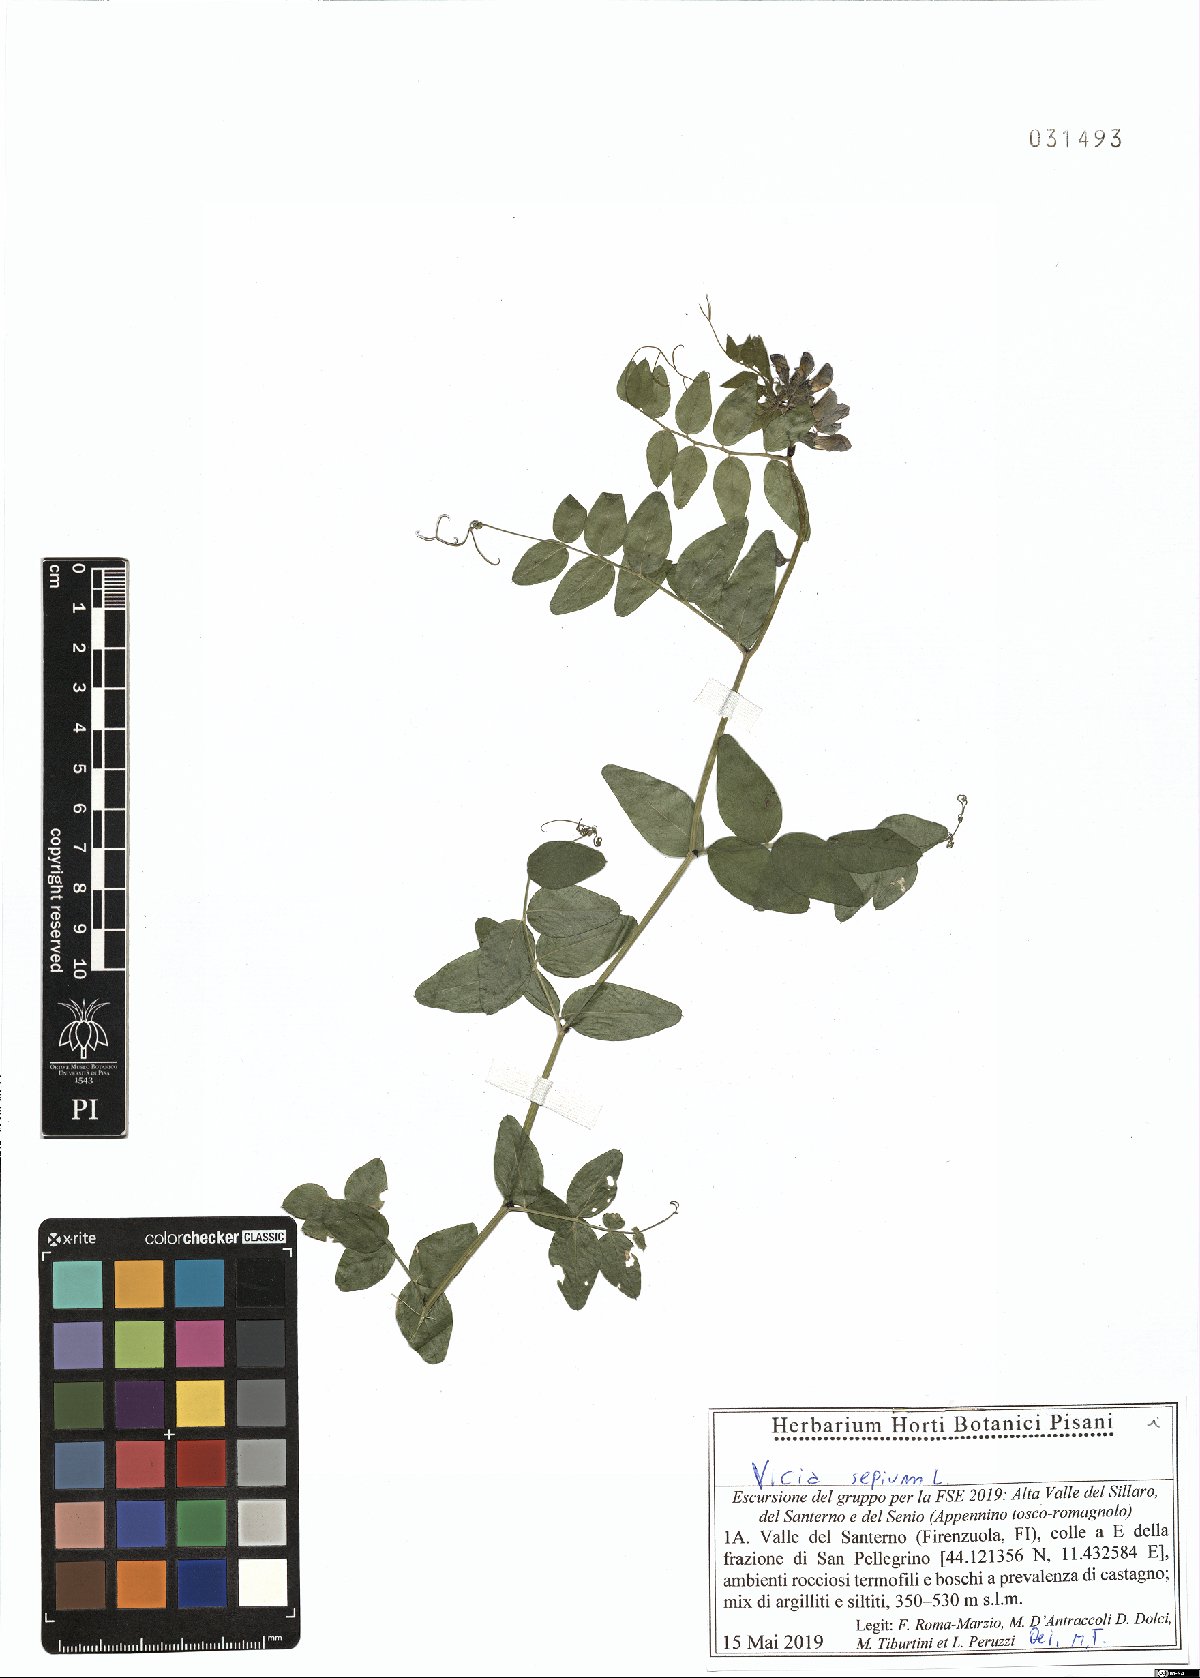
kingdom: Plantae
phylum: Tracheophyta
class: Magnoliopsida
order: Fabales
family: Fabaceae
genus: Vicia
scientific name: Vicia sepium
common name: Bush vetch
